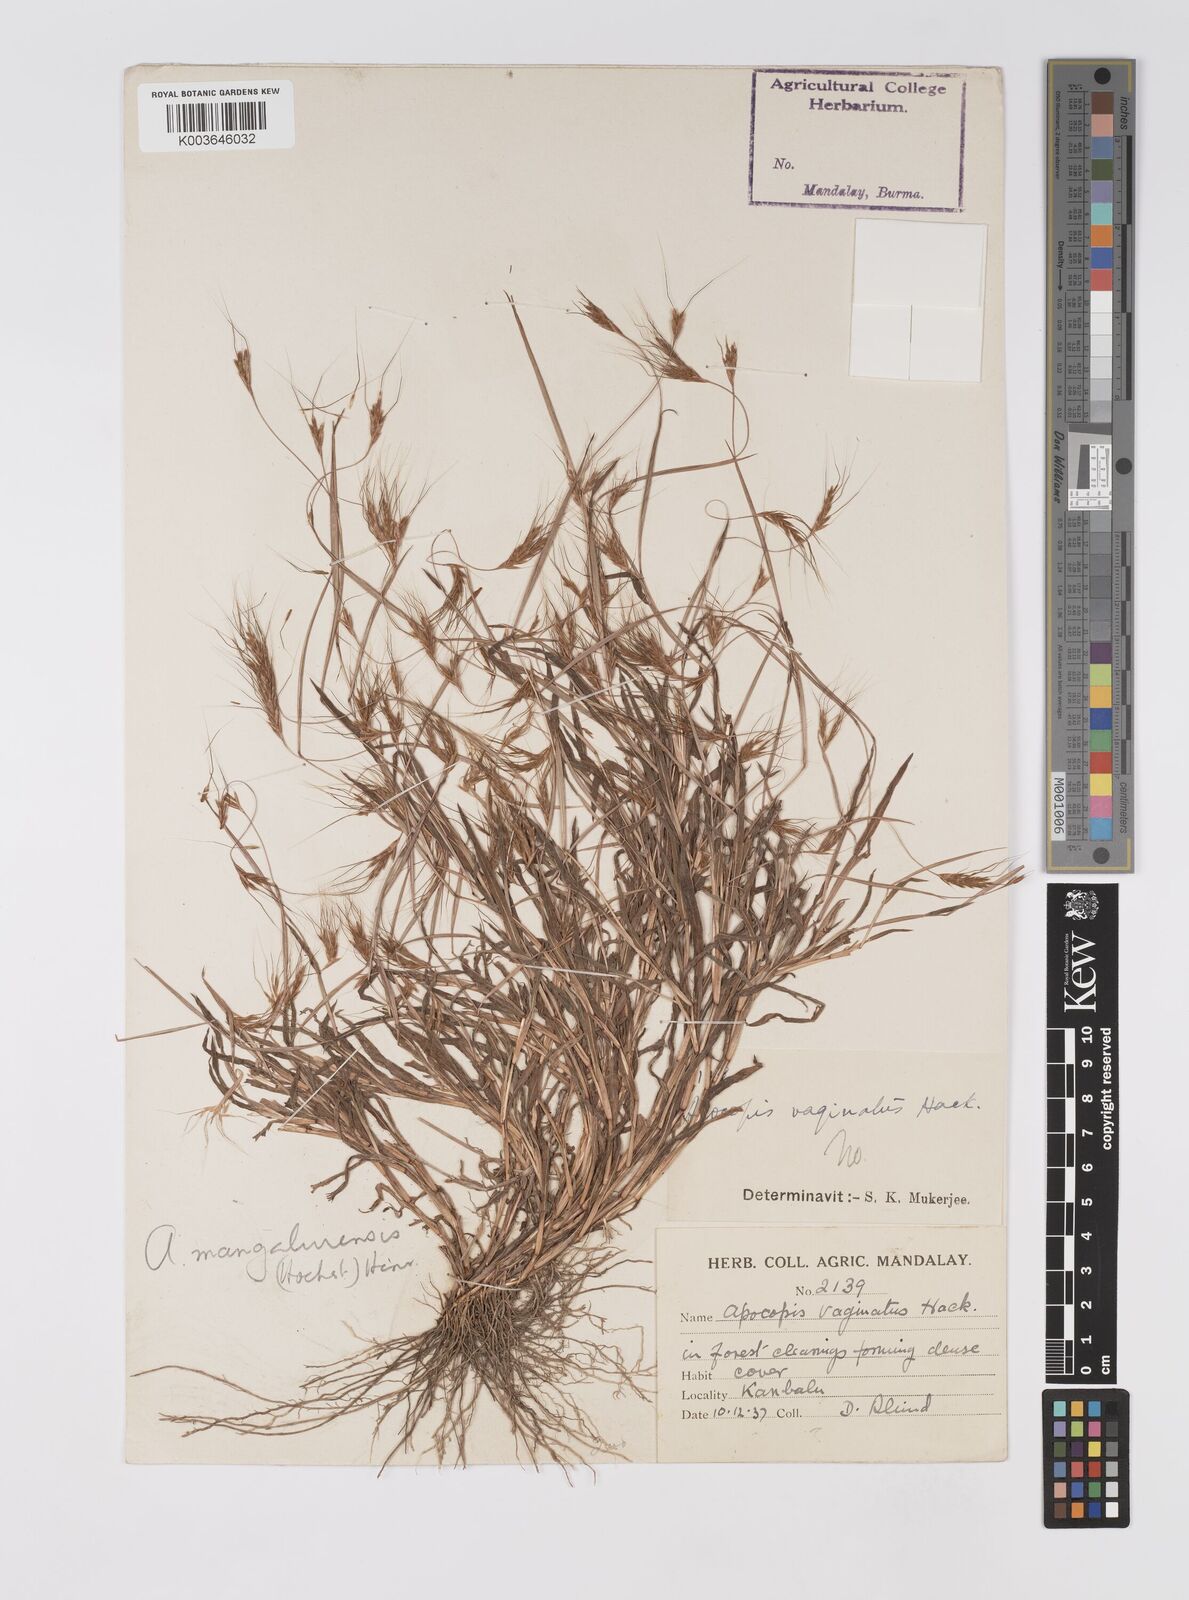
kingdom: Plantae
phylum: Tracheophyta
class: Liliopsida
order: Poales
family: Poaceae
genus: Apocopis
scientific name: Apocopis mangalorensis
